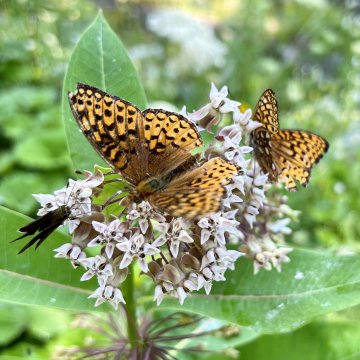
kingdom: Animalia
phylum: Arthropoda
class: Insecta
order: Lepidoptera
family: Nymphalidae
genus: Speyeria
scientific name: Speyeria atlantis
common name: Atlantis Fritillary
